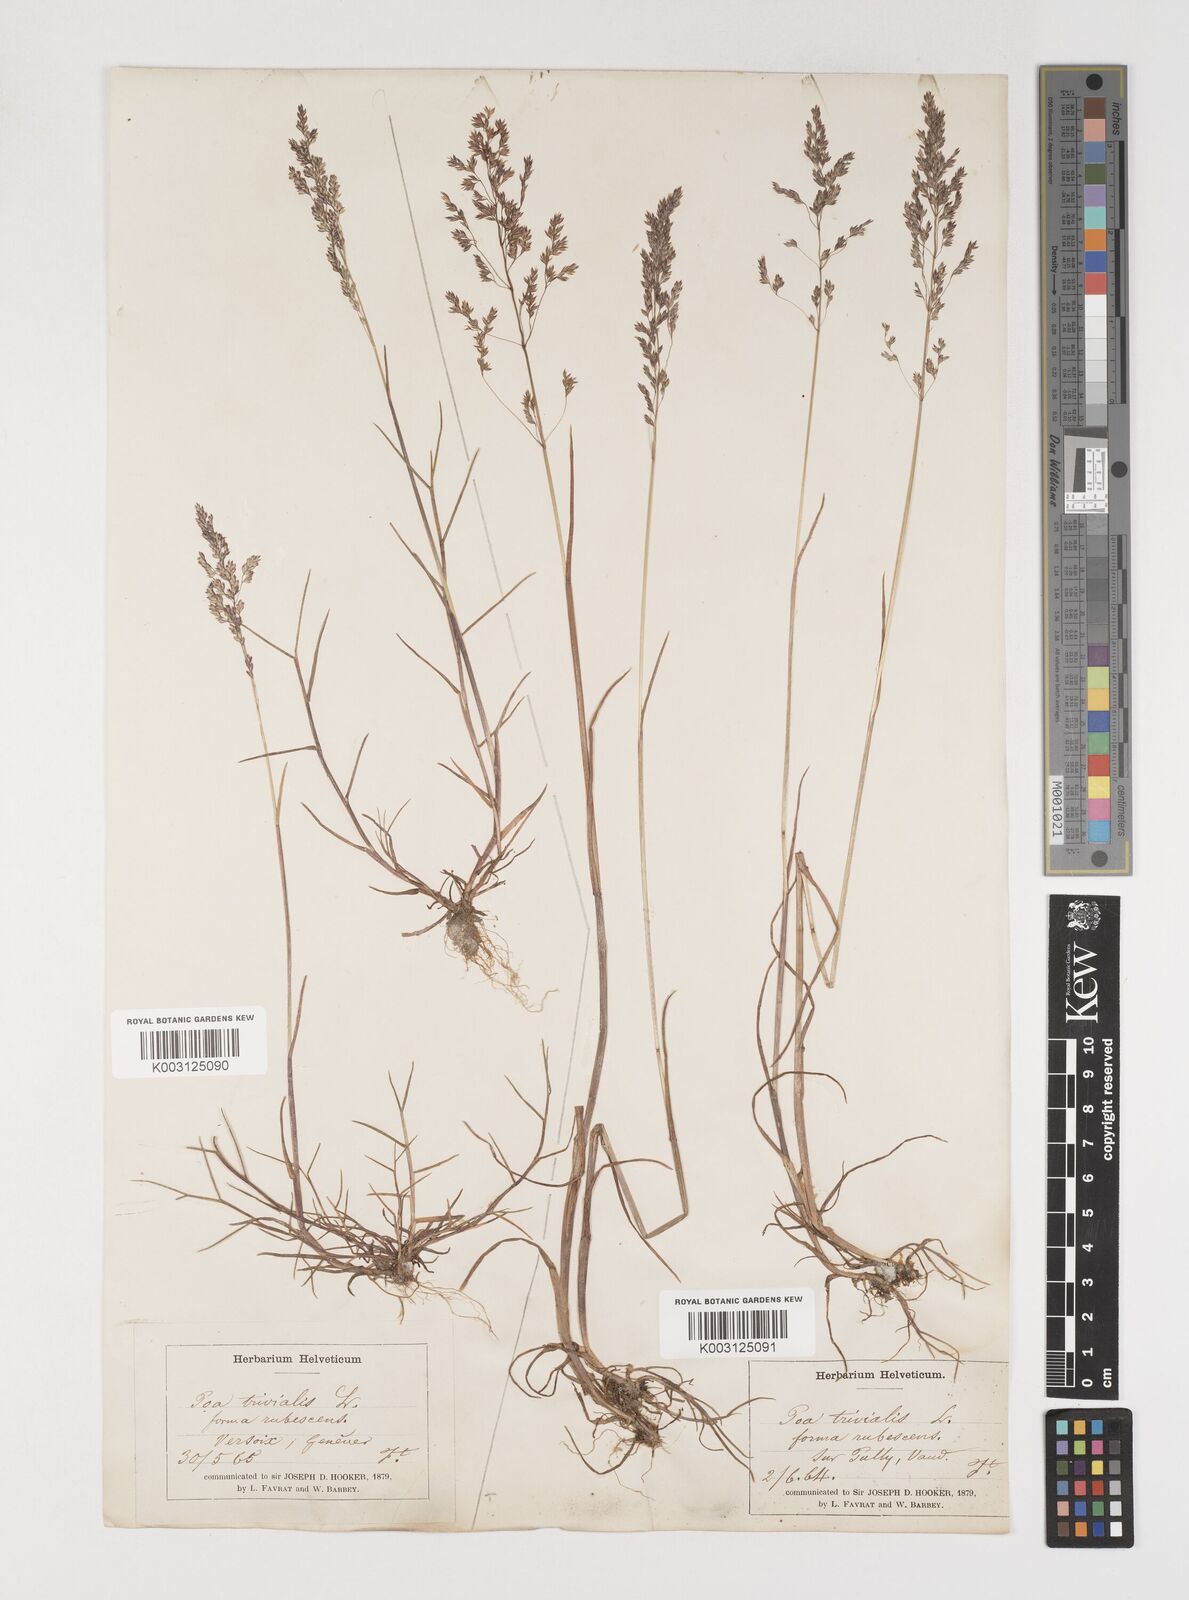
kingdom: Plantae
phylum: Tracheophyta
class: Liliopsida
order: Poales
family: Poaceae
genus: Poa
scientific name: Poa trivialis
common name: Rough bluegrass
